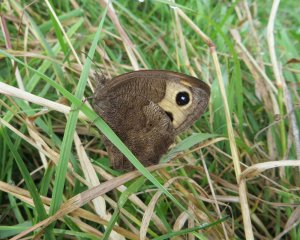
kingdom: Animalia
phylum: Arthropoda
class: Insecta
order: Lepidoptera
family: Nymphalidae
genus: Cercyonis
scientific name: Cercyonis pegala
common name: Common Wood-Nymph
